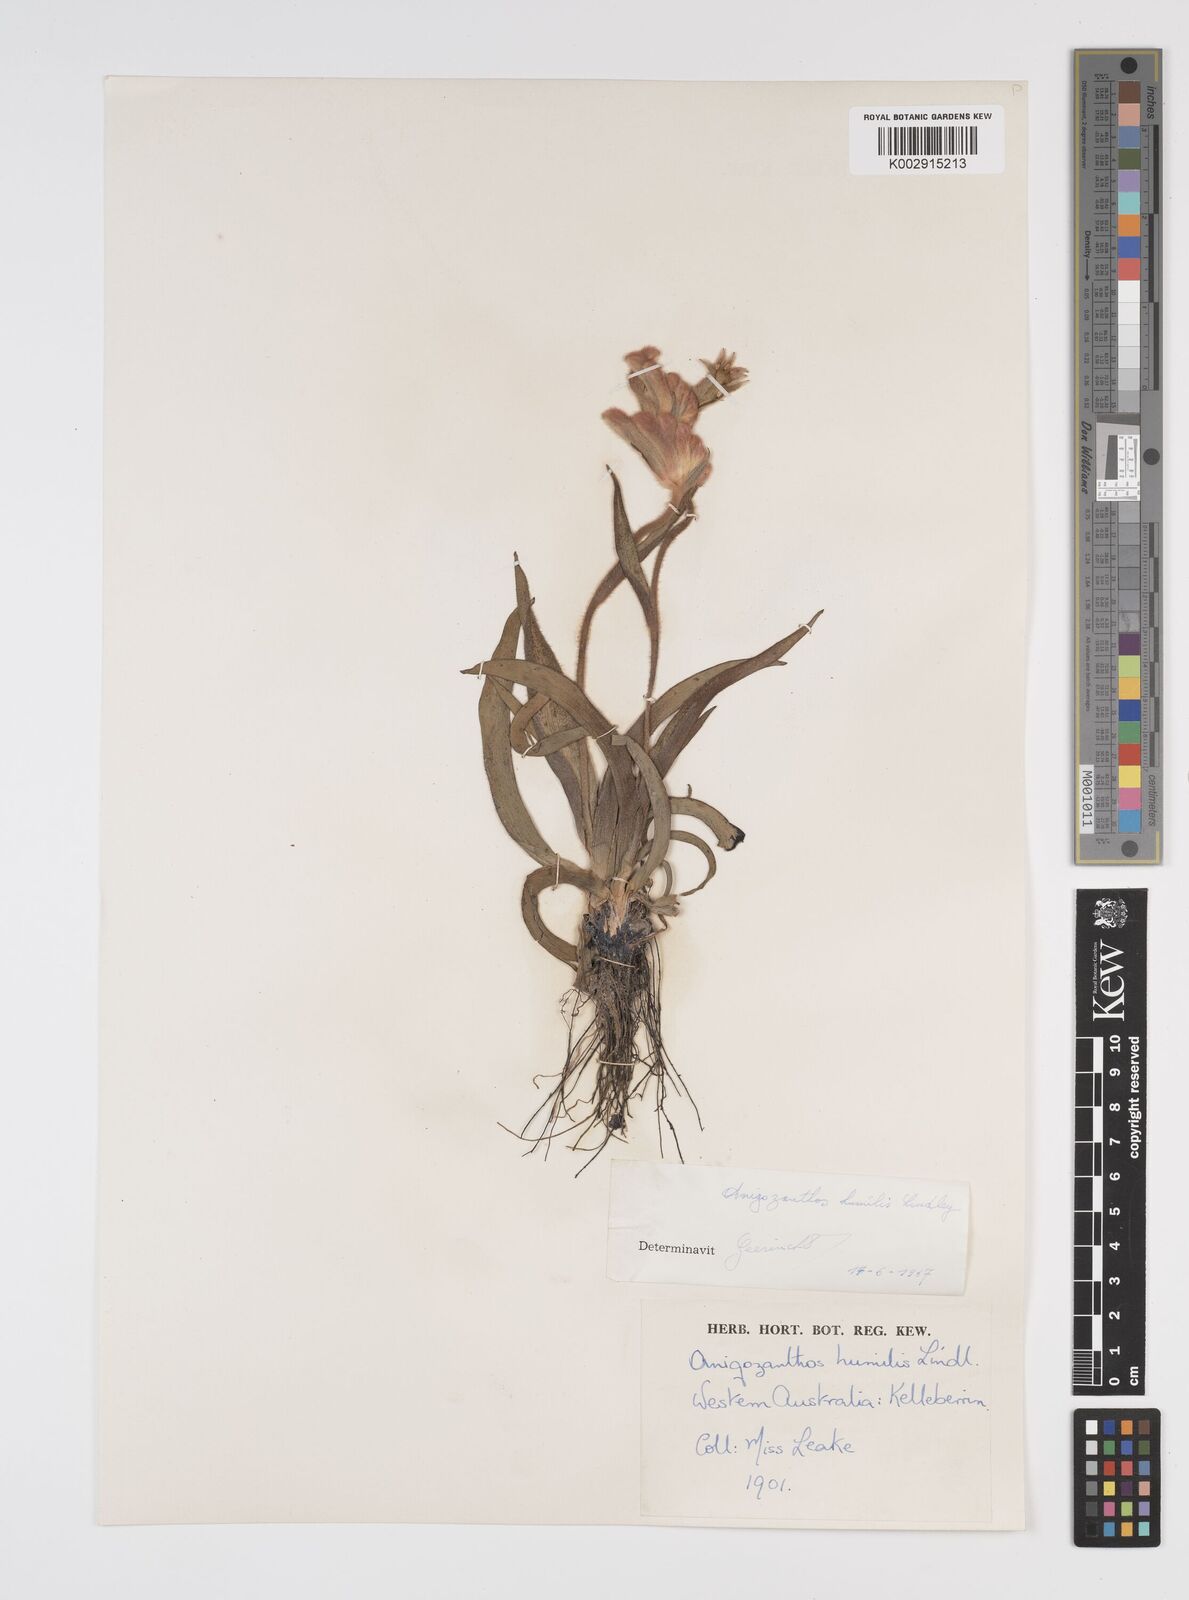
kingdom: Plantae
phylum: Tracheophyta
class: Liliopsida
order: Commelinales
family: Haemodoraceae
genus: Anigozanthos
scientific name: Anigozanthos humilis
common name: Cat's-paw
